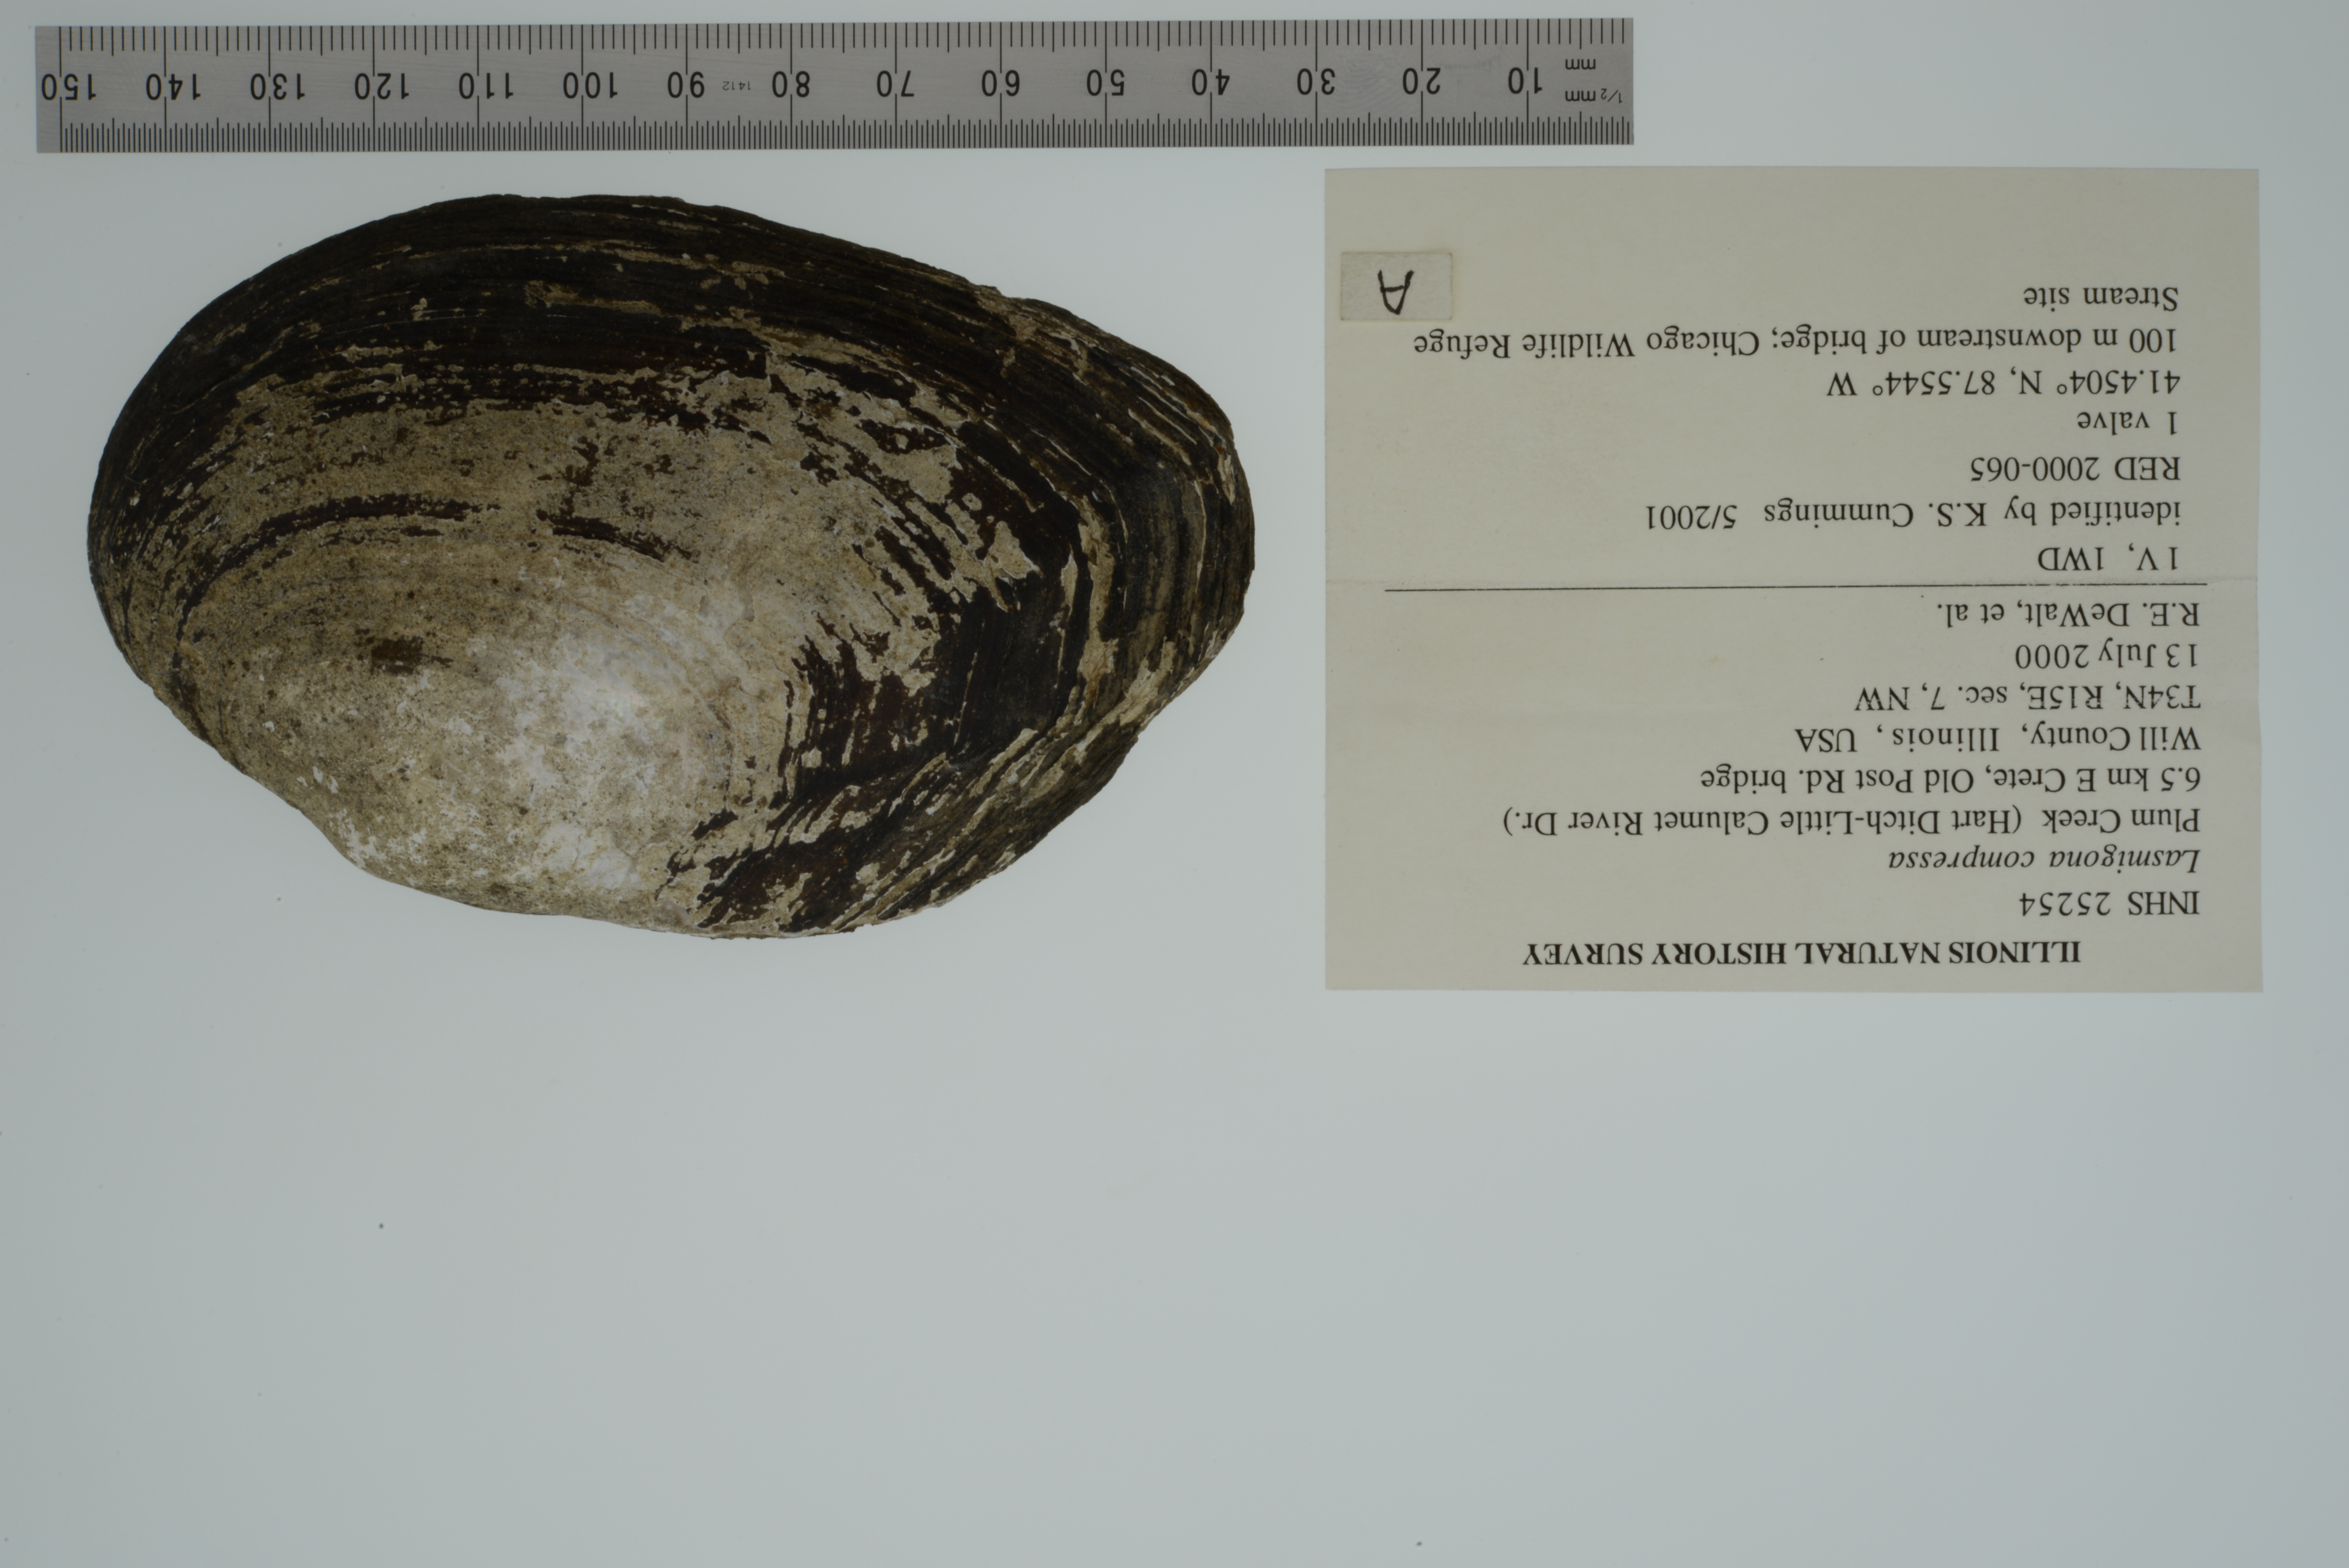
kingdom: Animalia
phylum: Mollusca
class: Bivalvia
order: Unionida
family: Unionidae
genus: Lasmigona
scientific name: Lasmigona compressa
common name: Creek heelsplitter
